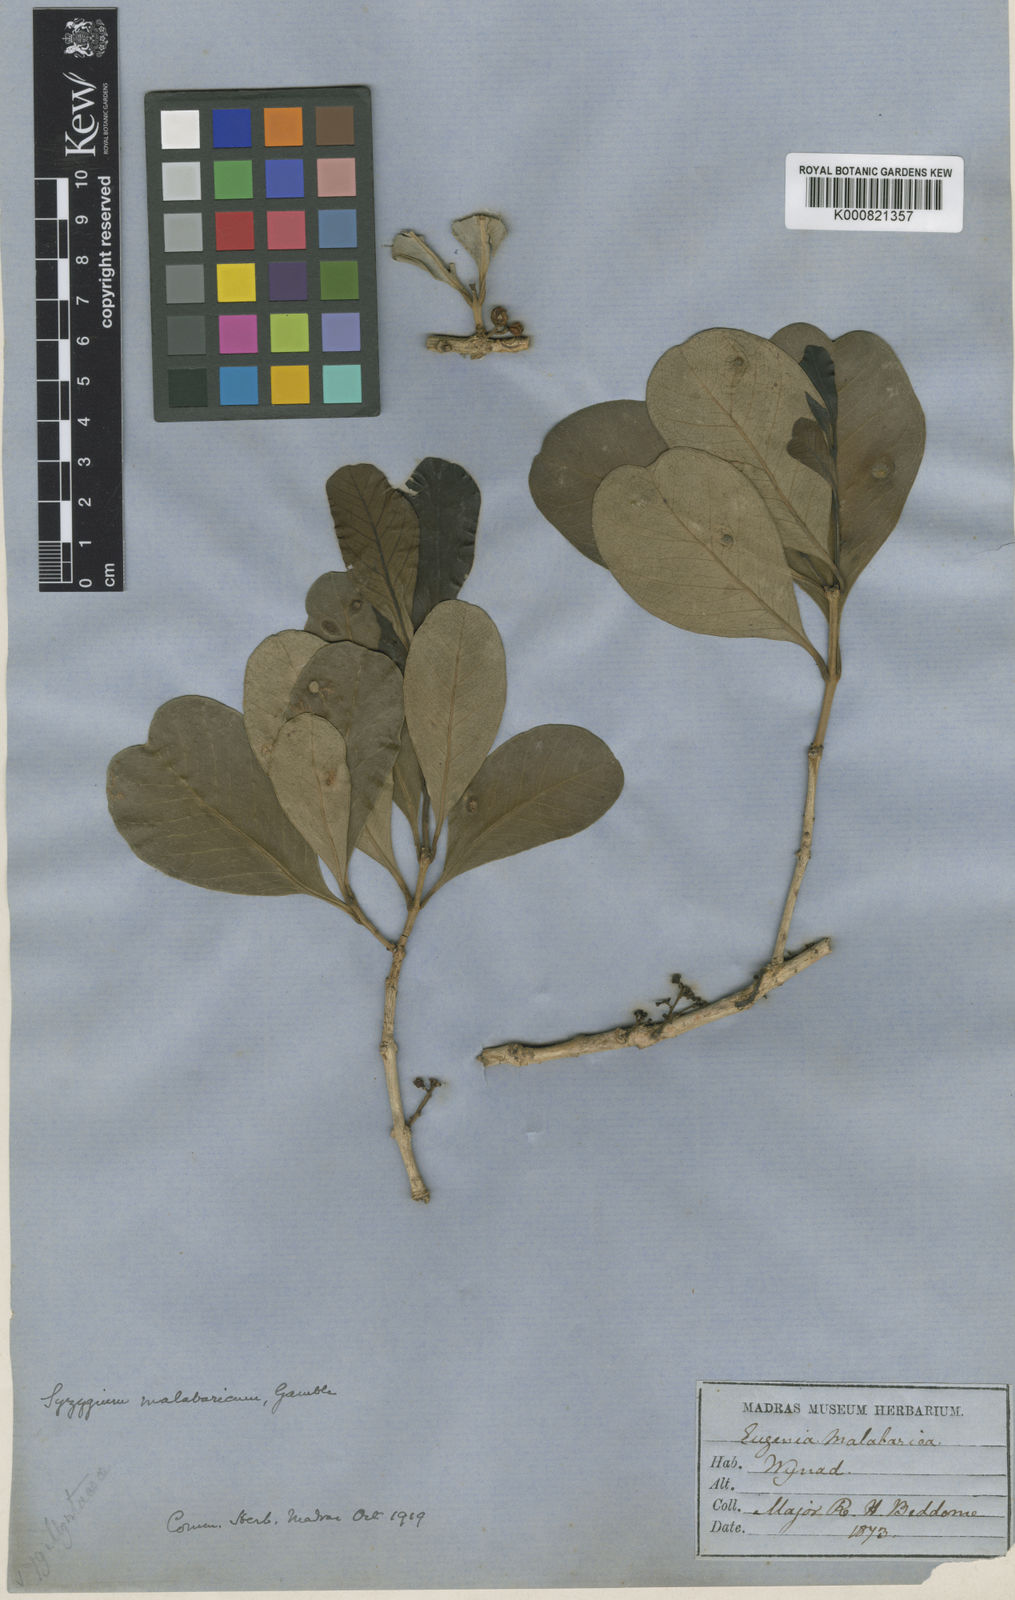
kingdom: Plantae
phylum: Tracheophyta
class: Magnoliopsida
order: Myrtales
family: Myrtaceae
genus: Syzygium
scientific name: Syzygium malabaricum
